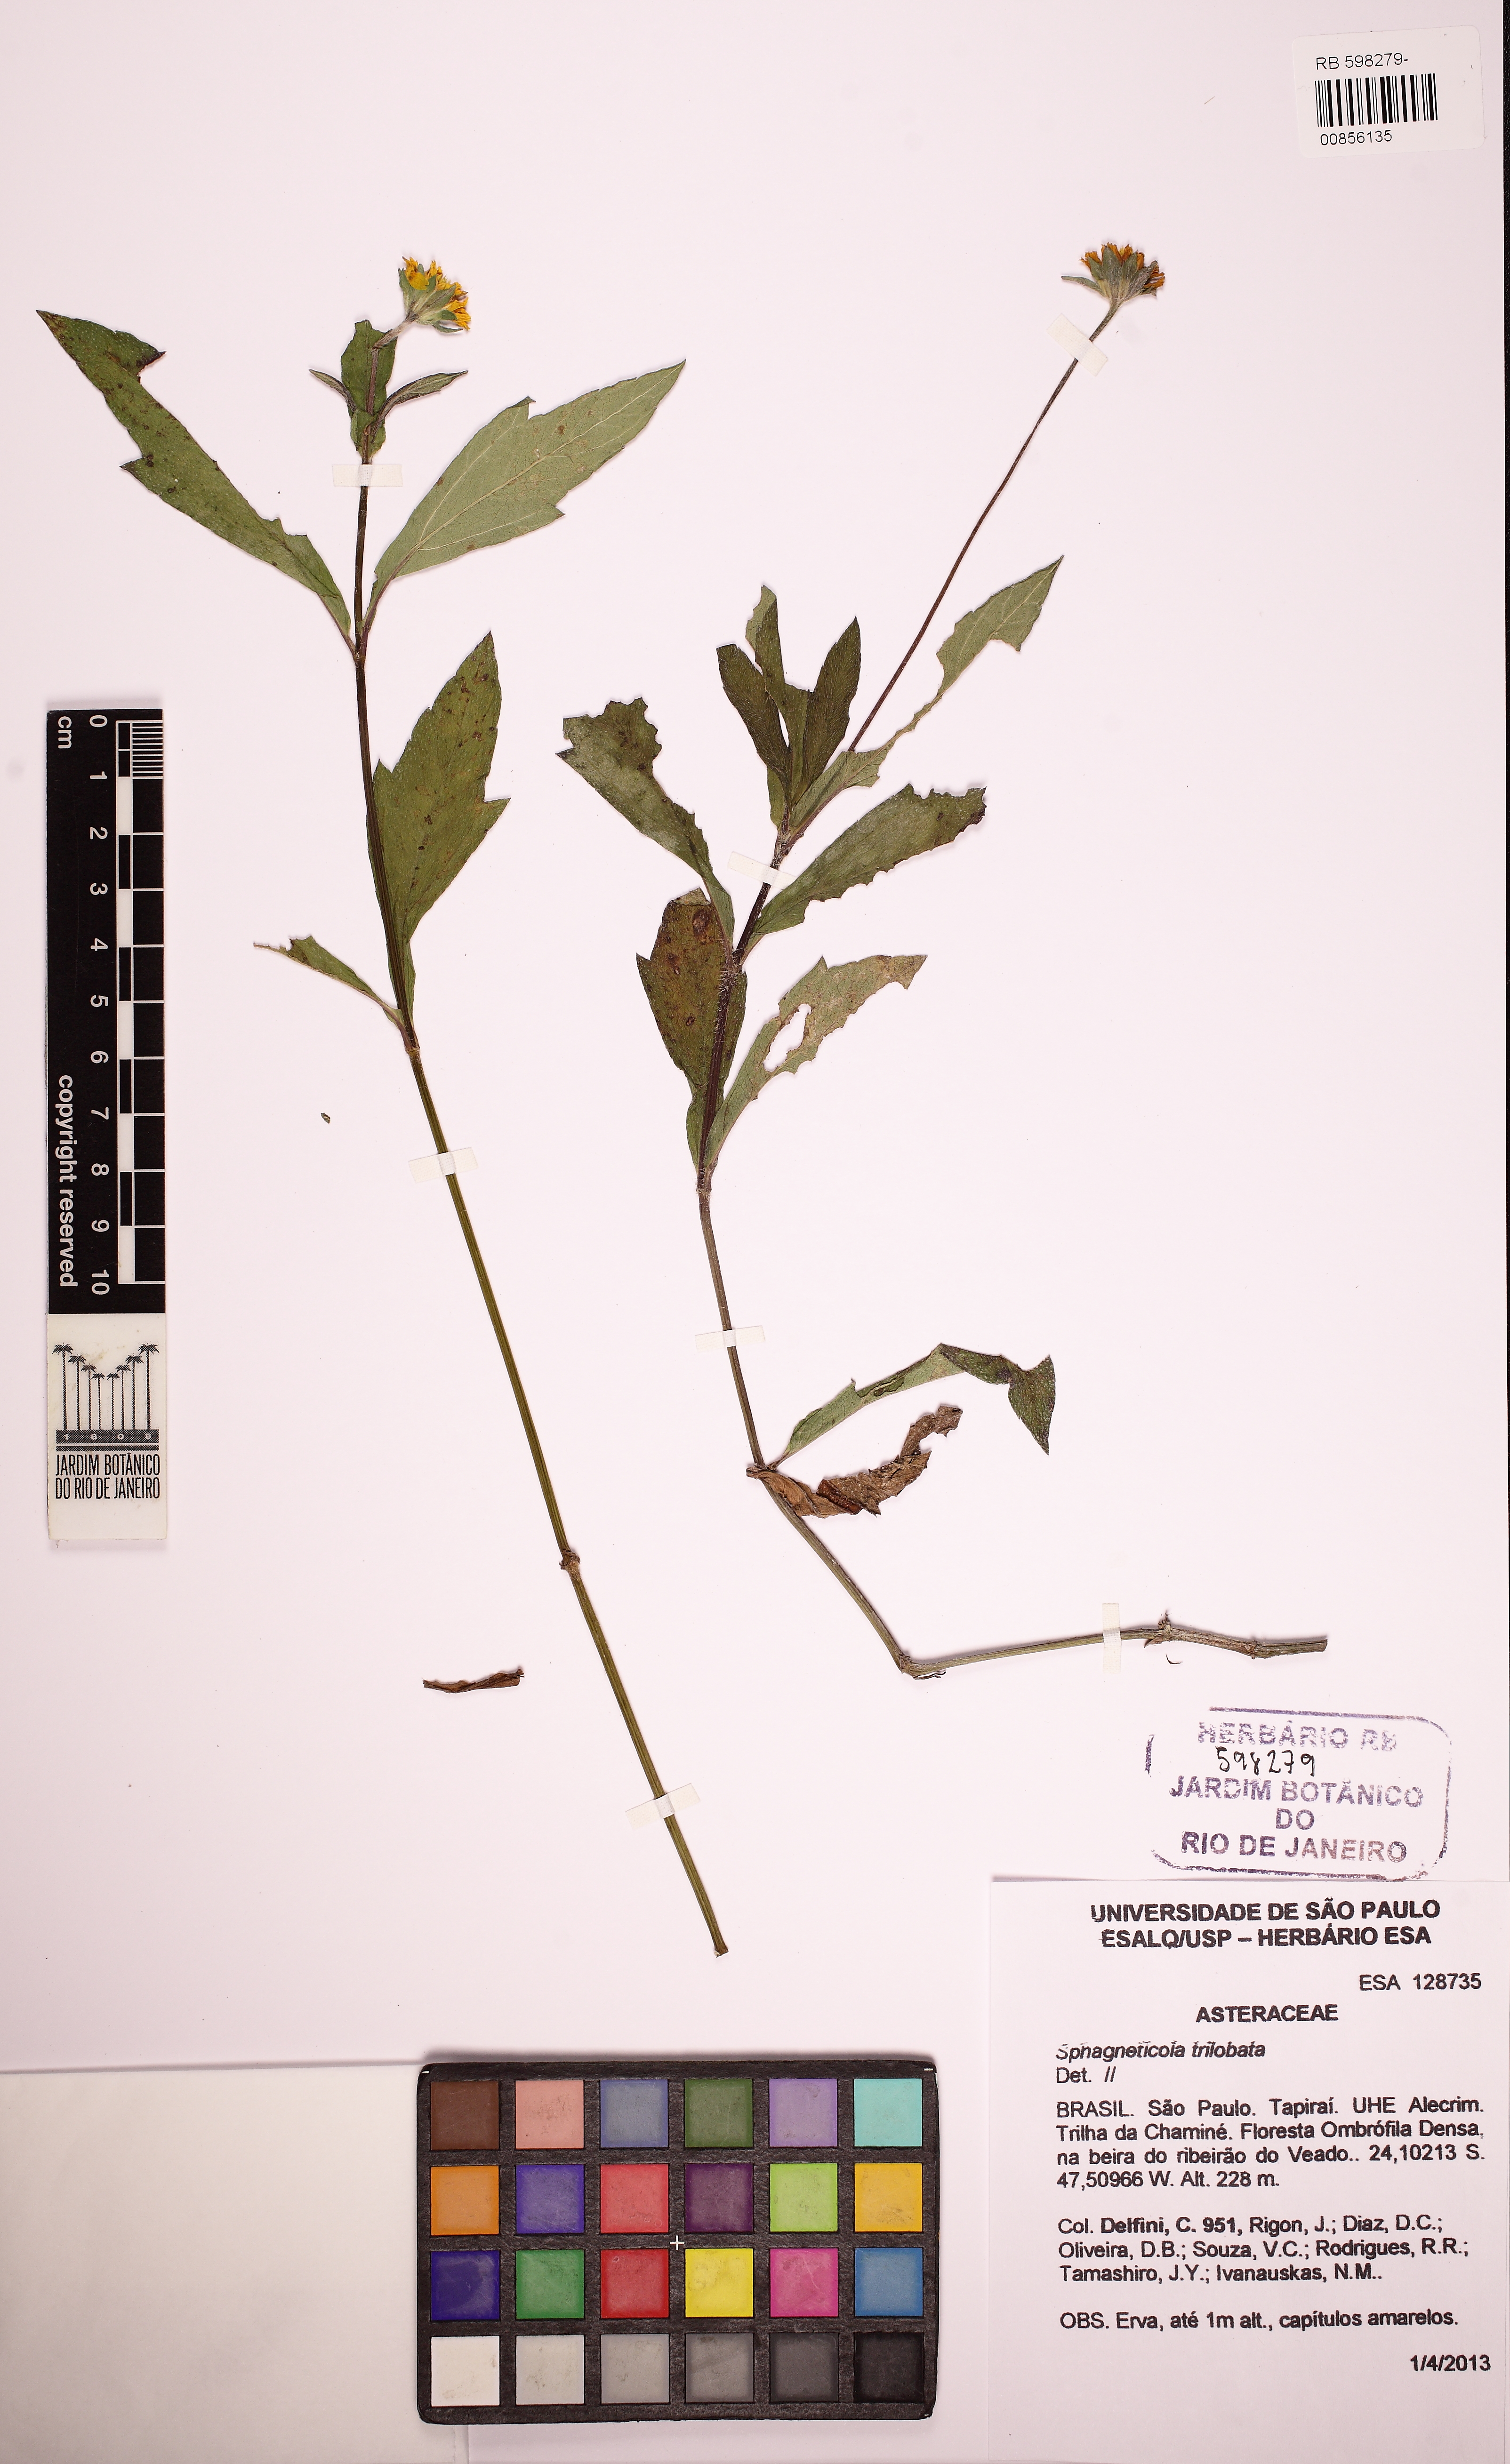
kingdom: Plantae
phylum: Tracheophyta
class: Magnoliopsida
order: Asterales
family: Asteraceae
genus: Sphagneticola
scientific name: Sphagneticola trilobata
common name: Bay biscayne creeping-oxeye
